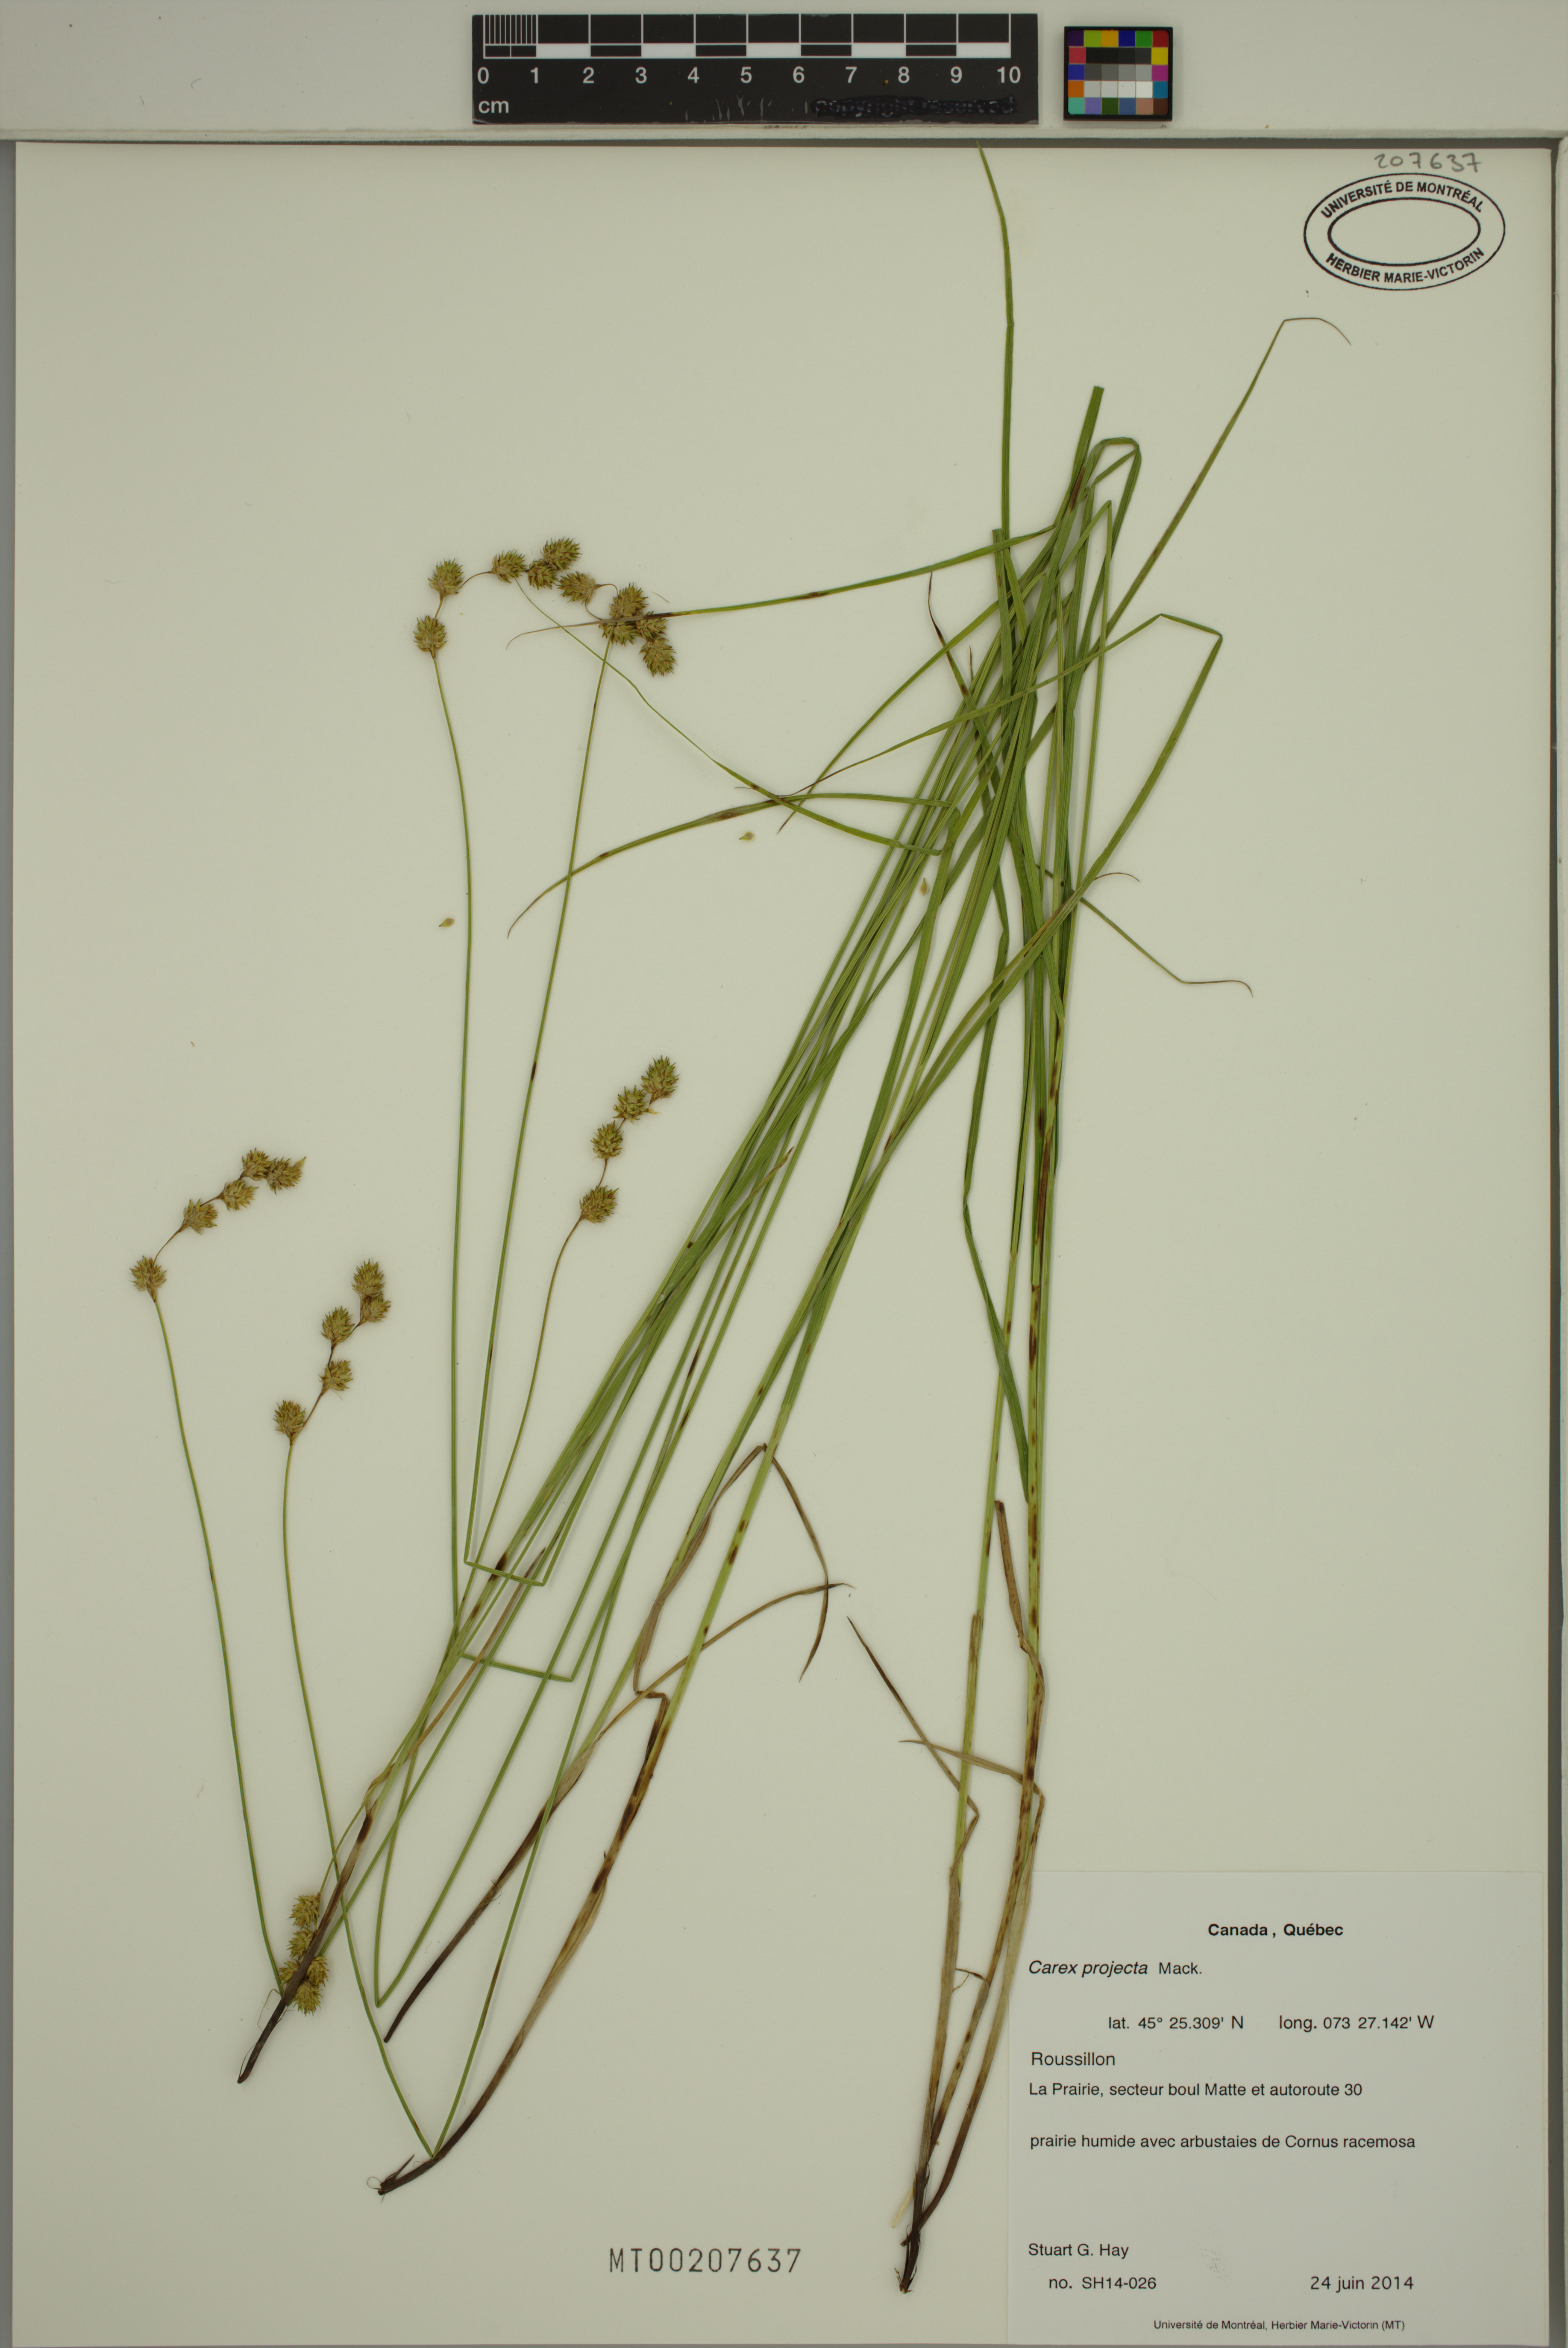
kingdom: Plantae
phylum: Tracheophyta
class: Liliopsida
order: Poales
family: Cyperaceae
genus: Carex
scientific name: Carex projecta
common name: Loose-headed oval sedge
